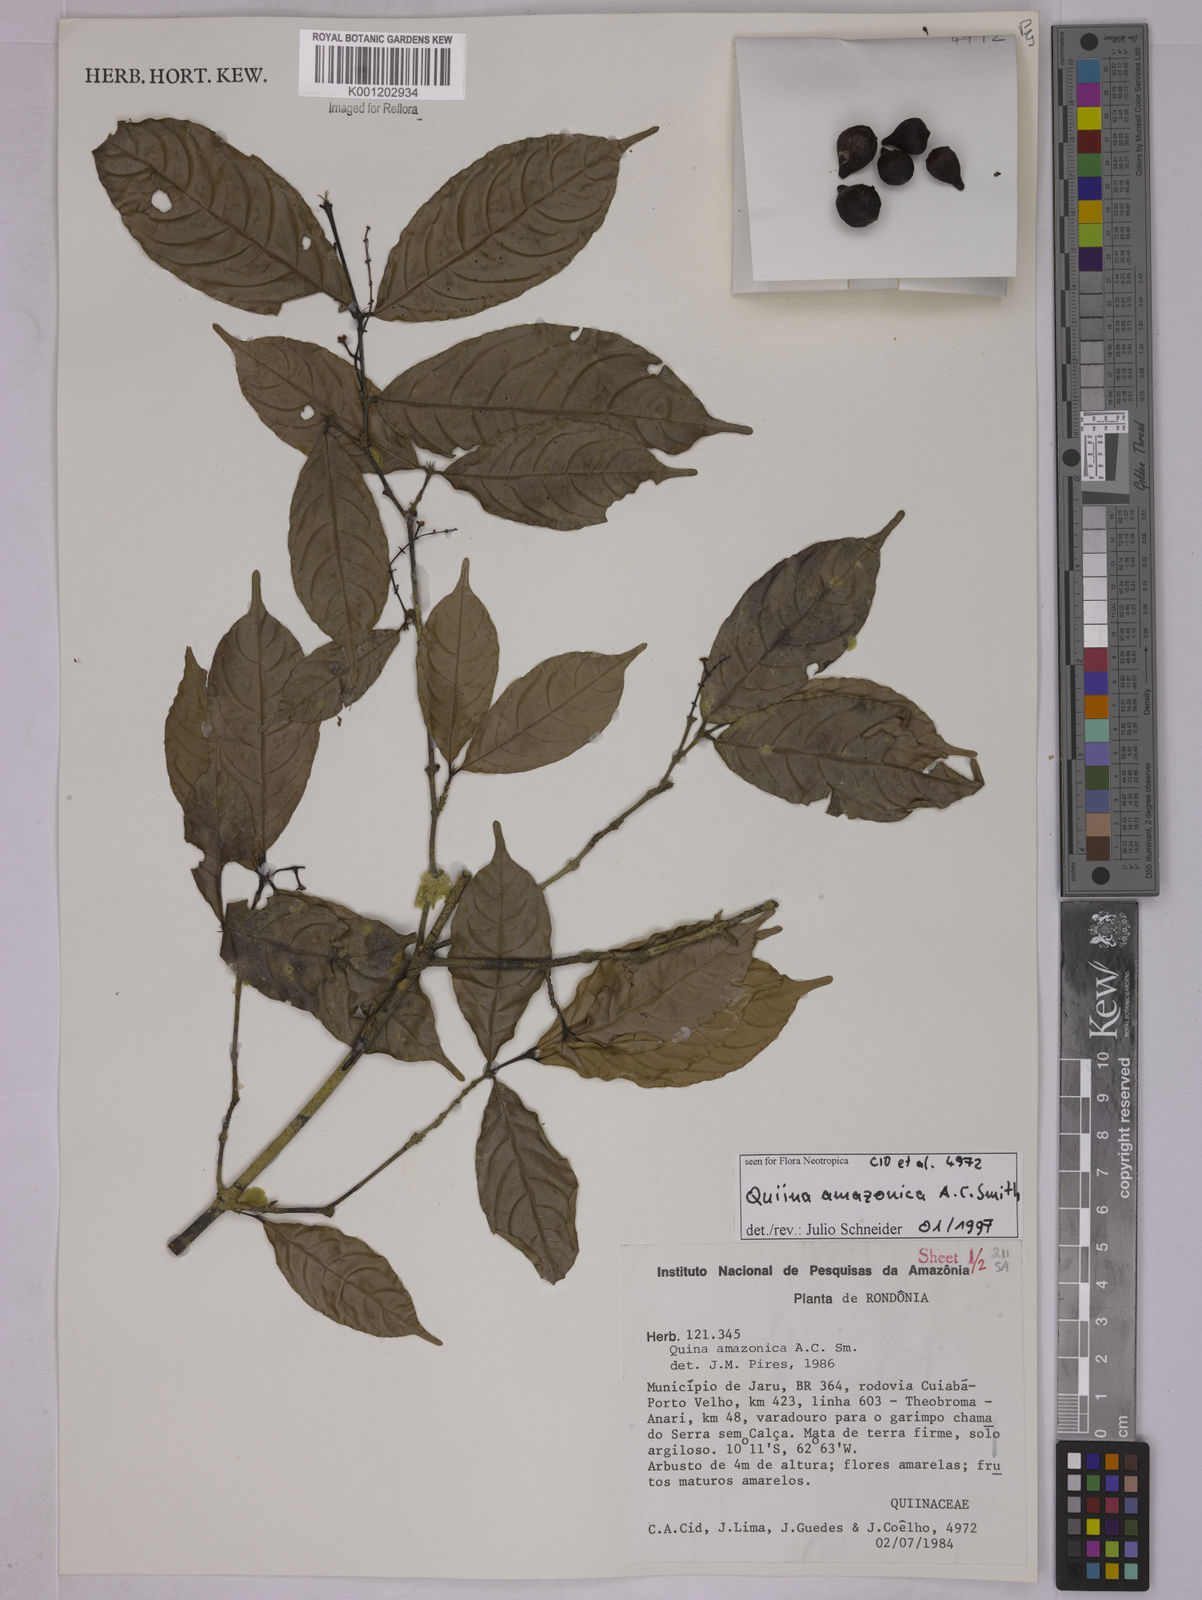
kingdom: Plantae
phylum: Tracheophyta
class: Magnoliopsida
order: Malpighiales
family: Quiinaceae
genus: Quiina
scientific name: Quiina amazonica
